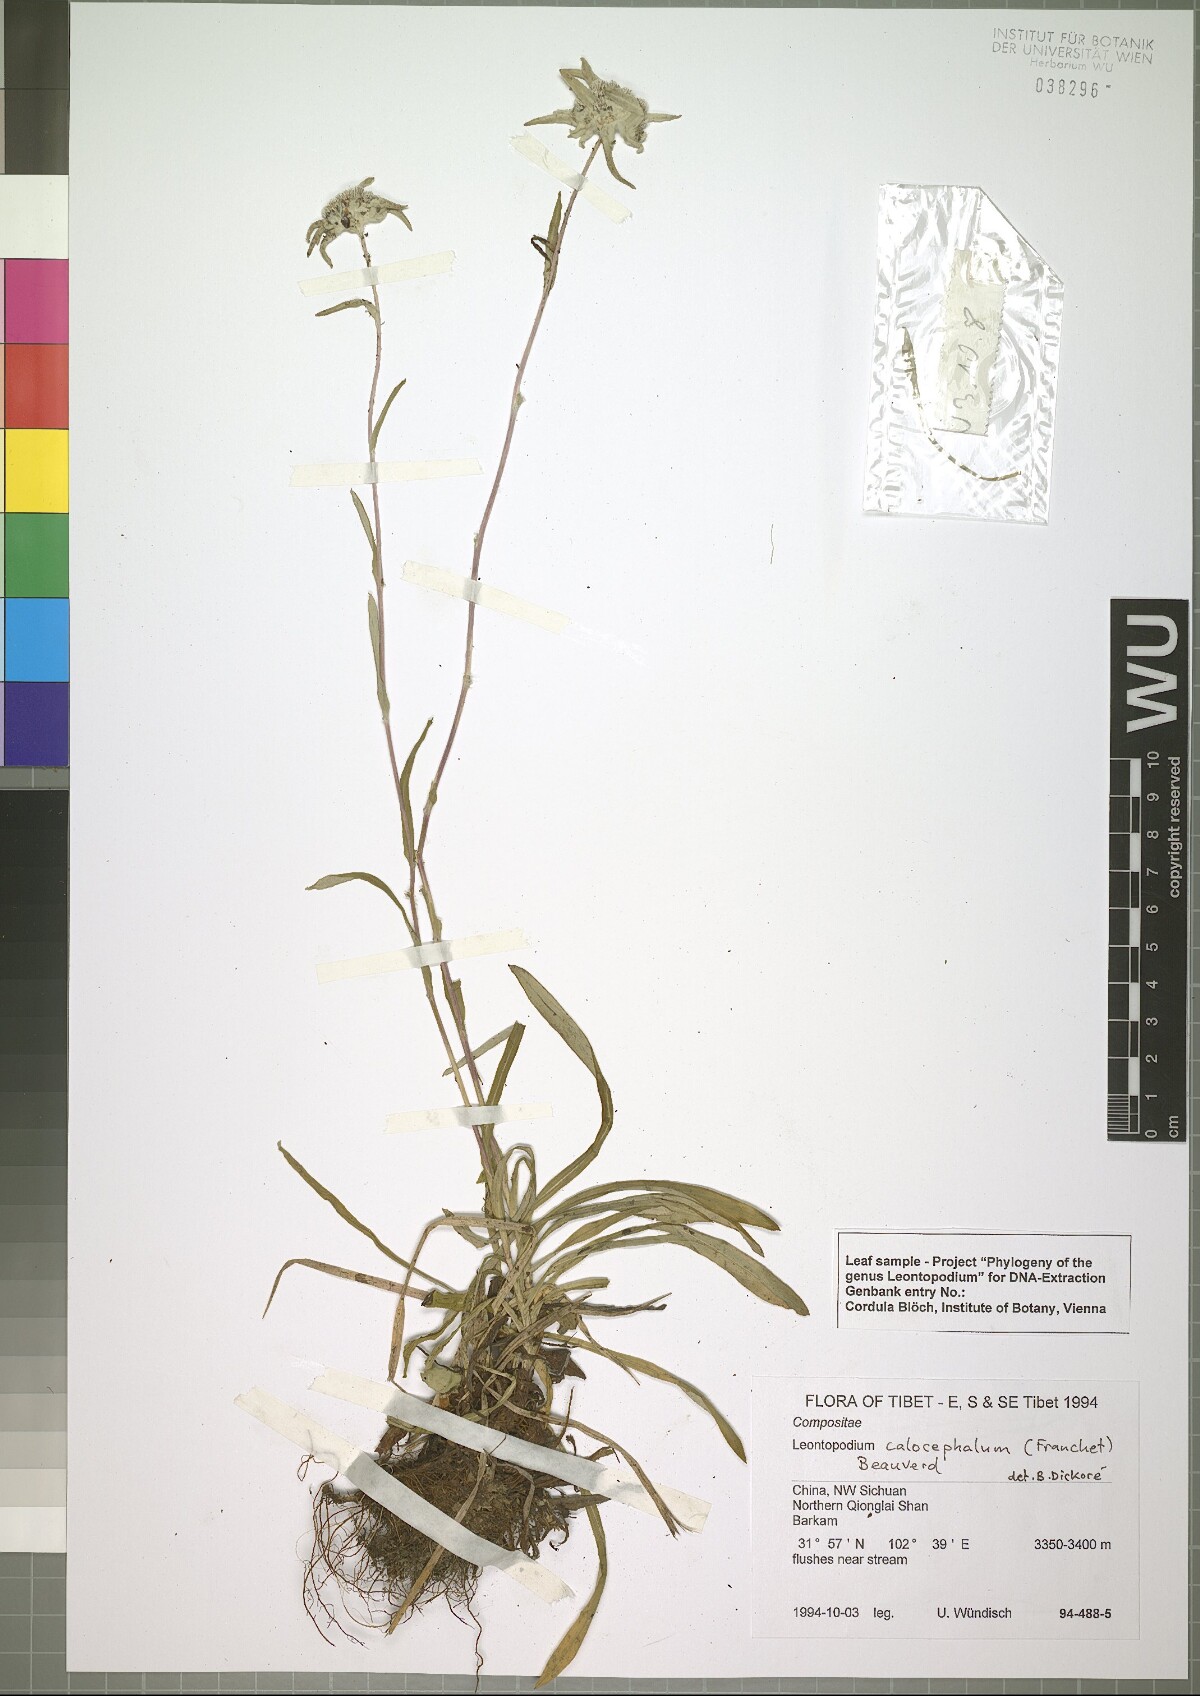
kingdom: Plantae
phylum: Tracheophyta
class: Magnoliopsida
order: Asterales
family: Asteraceae
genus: Leontopodium
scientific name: Leontopodium calocephalum
